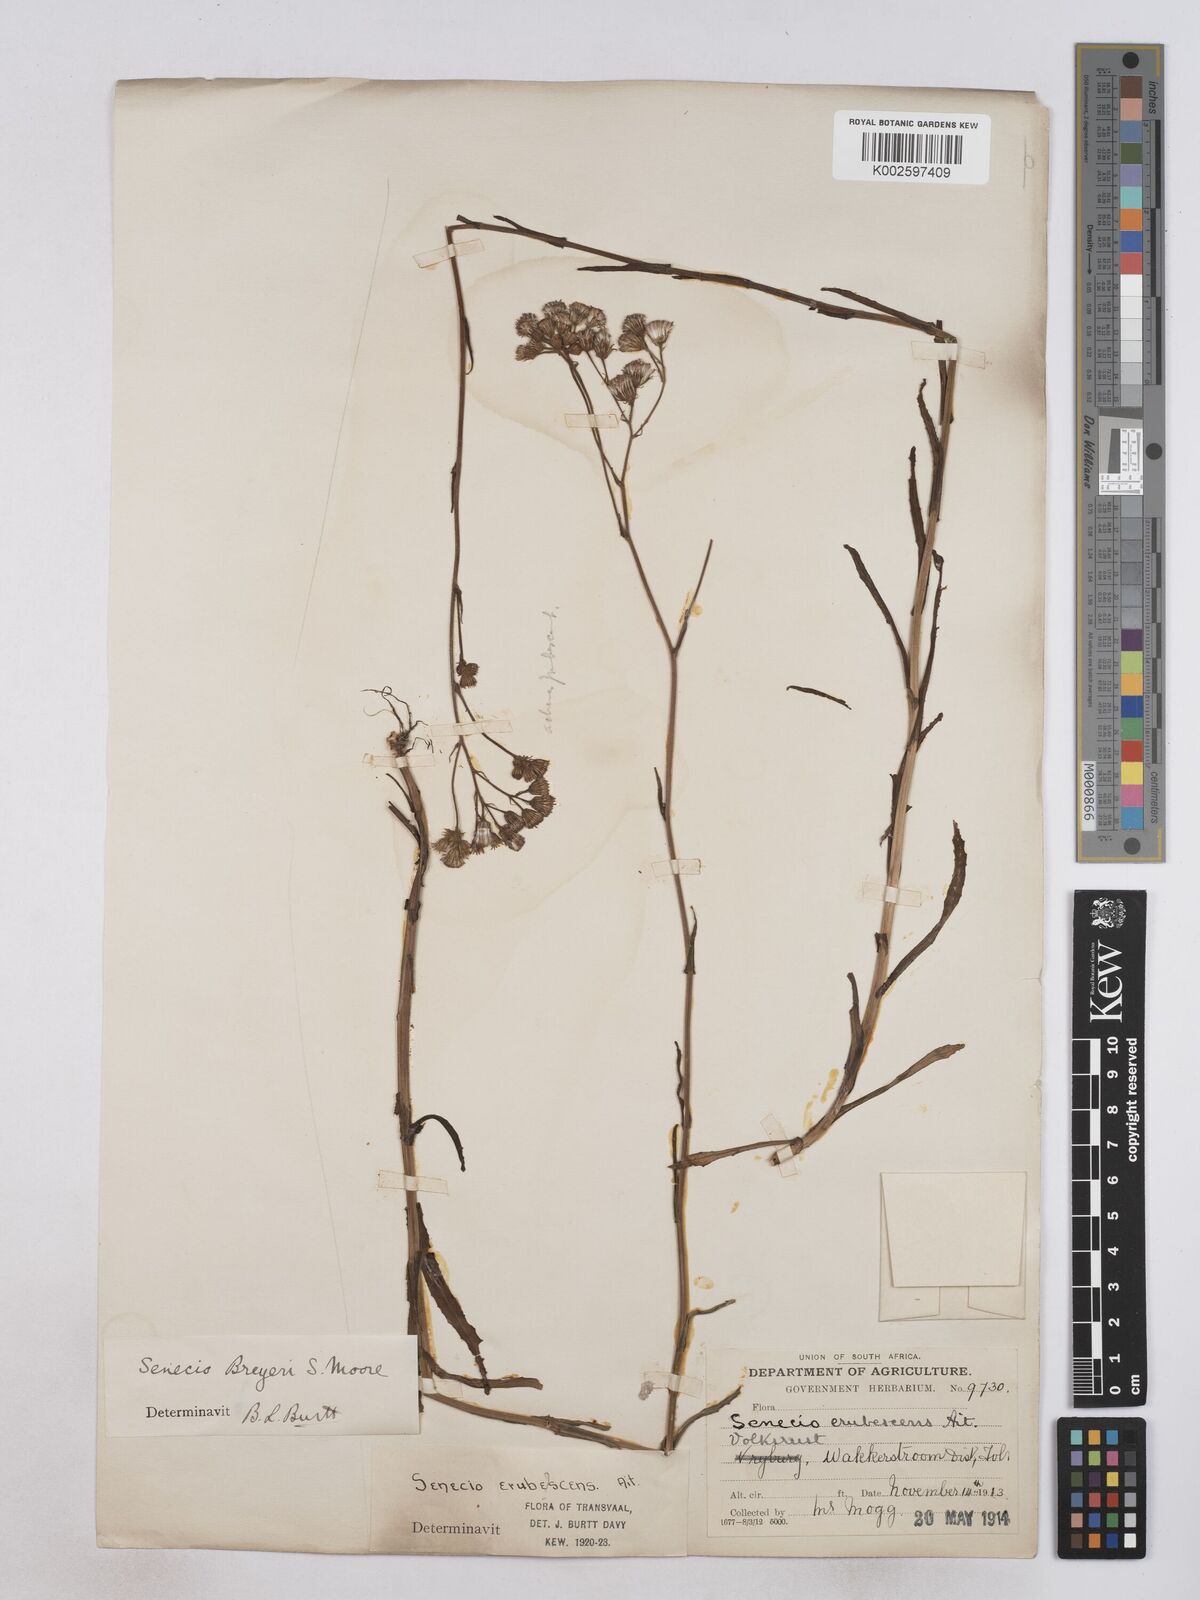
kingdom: Plantae
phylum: Tracheophyta
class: Magnoliopsida
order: Asterales
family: Asteraceae
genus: Senecio
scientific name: Senecio polyodon
